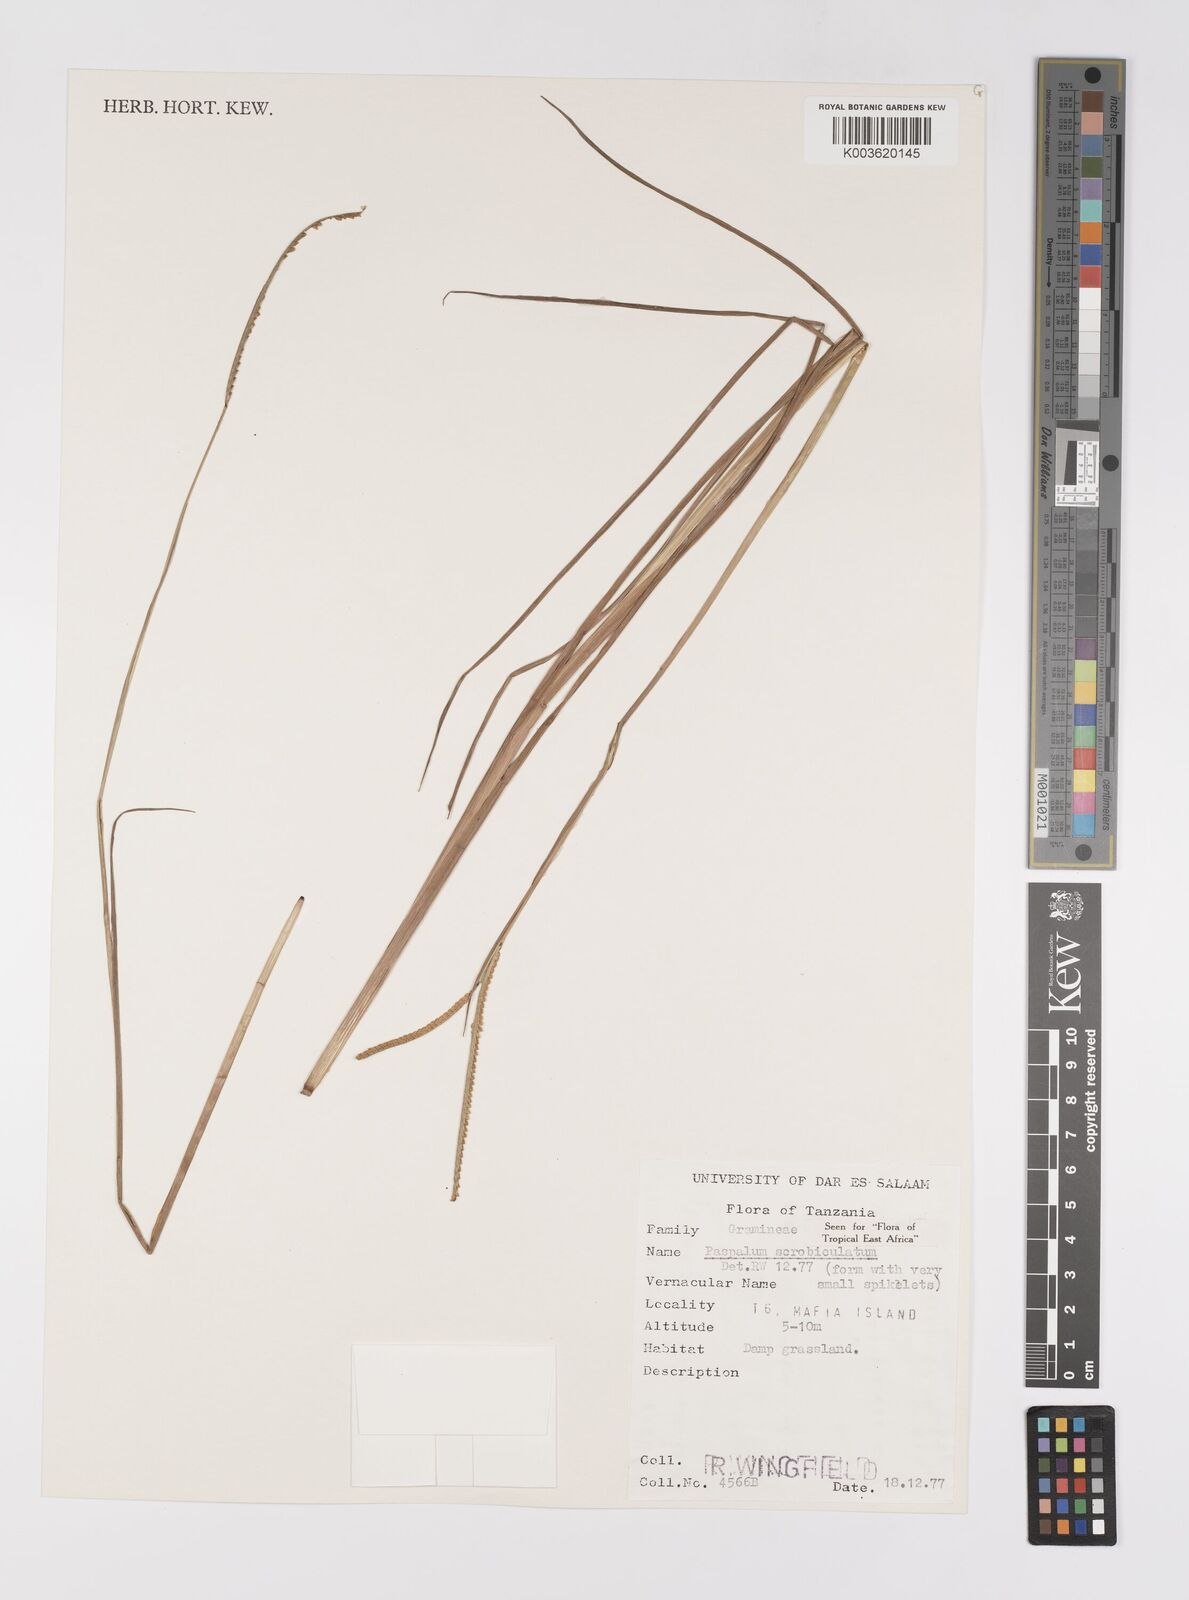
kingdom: Plantae
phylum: Tracheophyta
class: Liliopsida
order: Poales
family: Poaceae
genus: Paspalum
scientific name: Paspalum scrobiculatum
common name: Kodo millet
